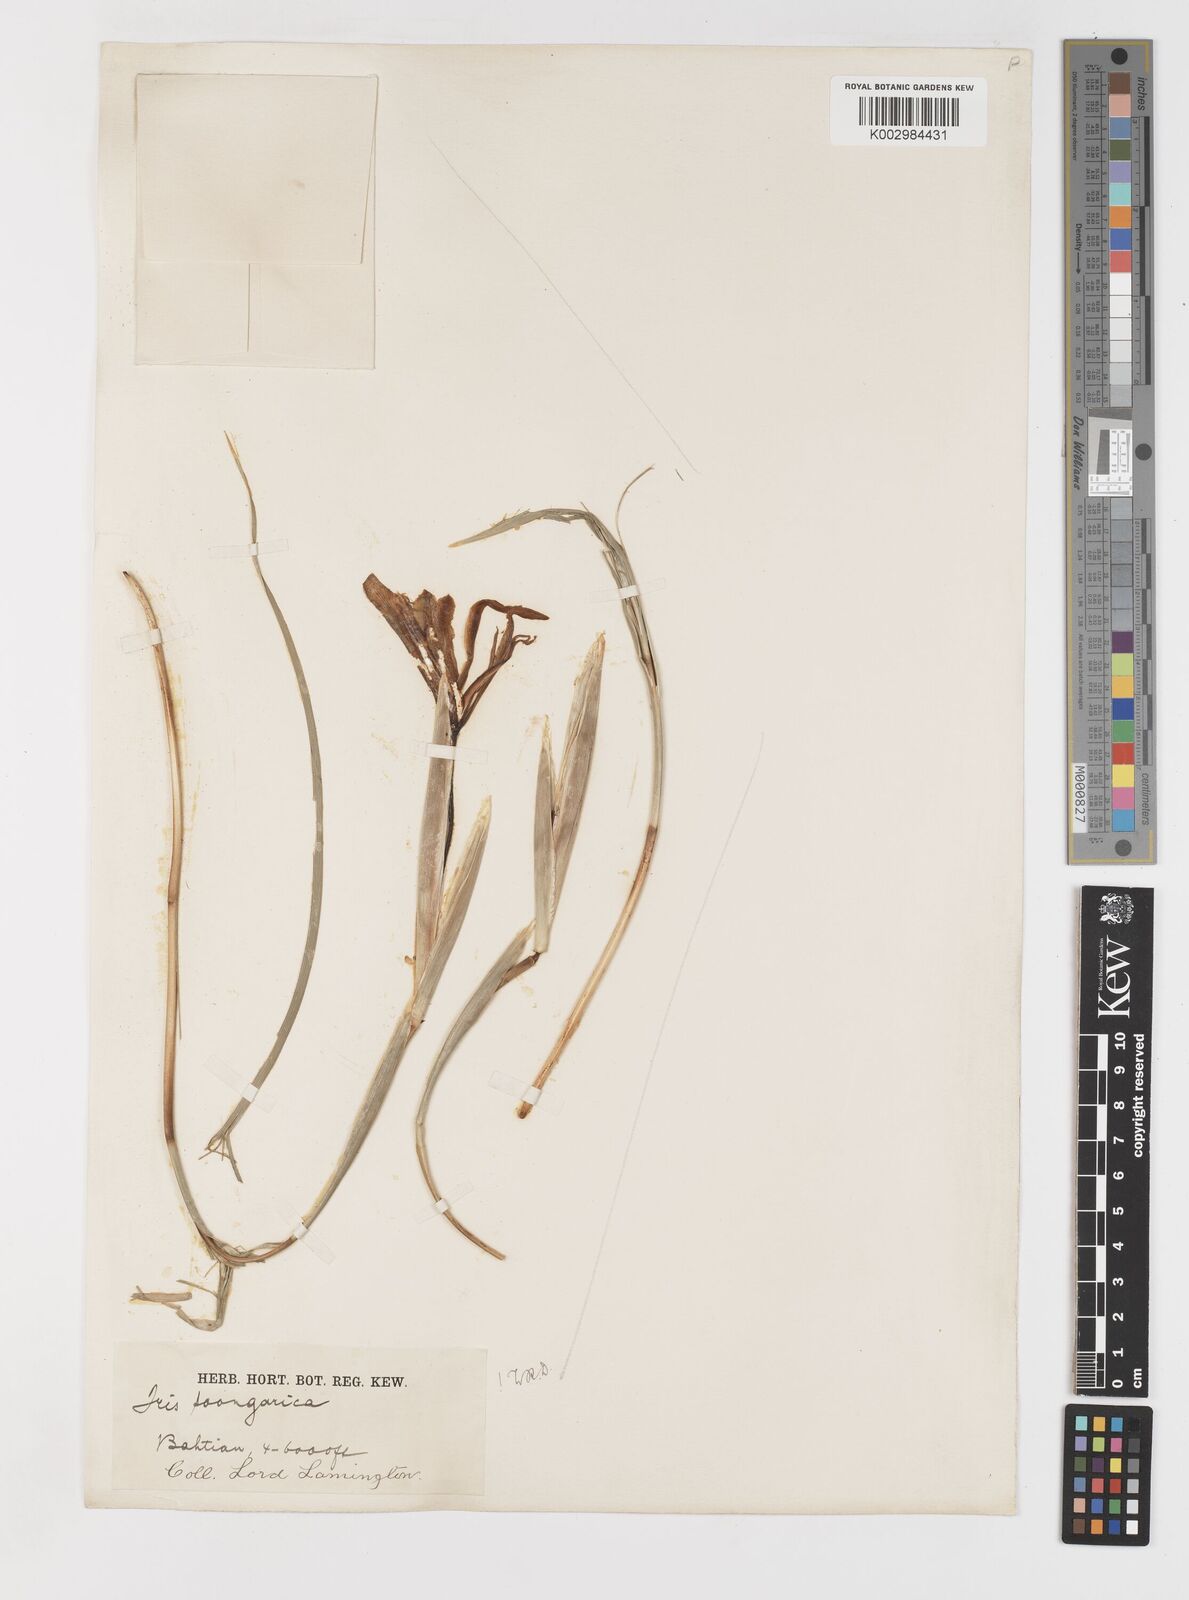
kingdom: Plantae
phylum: Tracheophyta
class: Liliopsida
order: Asparagales
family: Iridaceae
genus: Iris
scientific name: Iris songarica
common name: Songar iris
